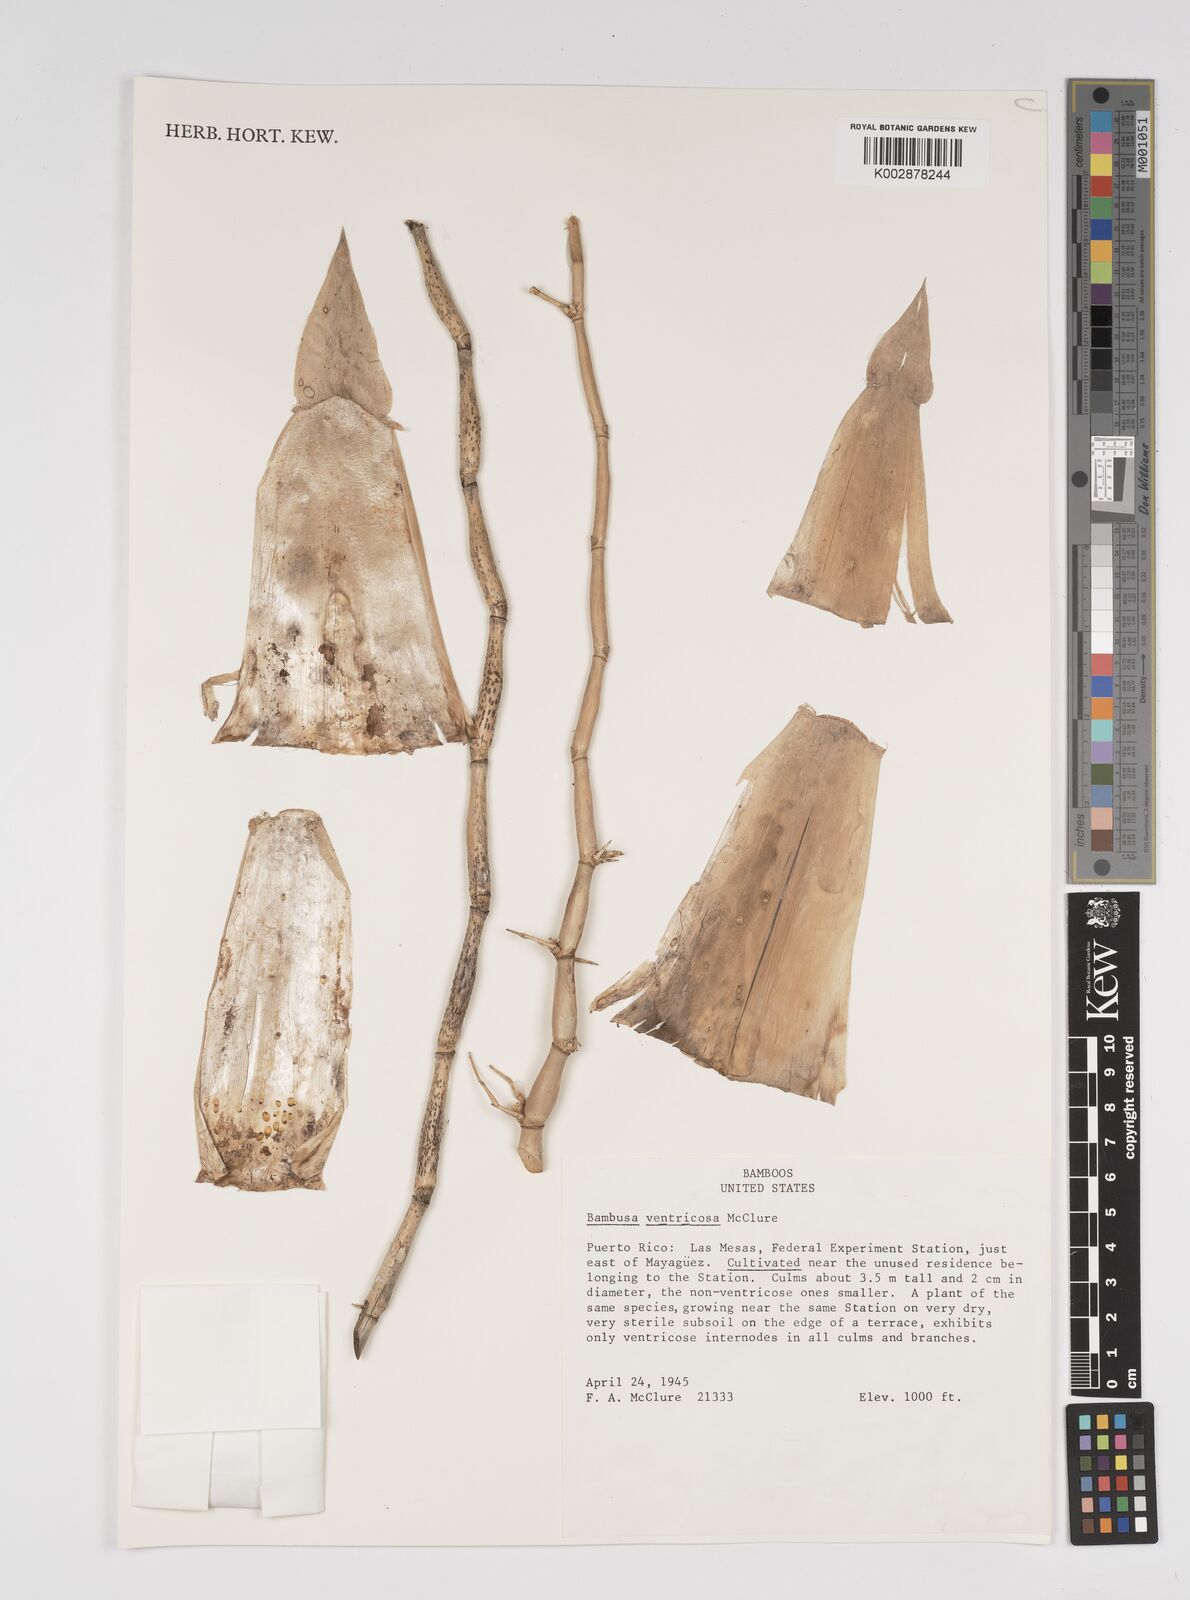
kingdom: Plantae
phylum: Tracheophyta
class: Liliopsida
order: Poales
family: Poaceae
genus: Bambusa
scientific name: Bambusa ventricosa
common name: Buddha bamboo
